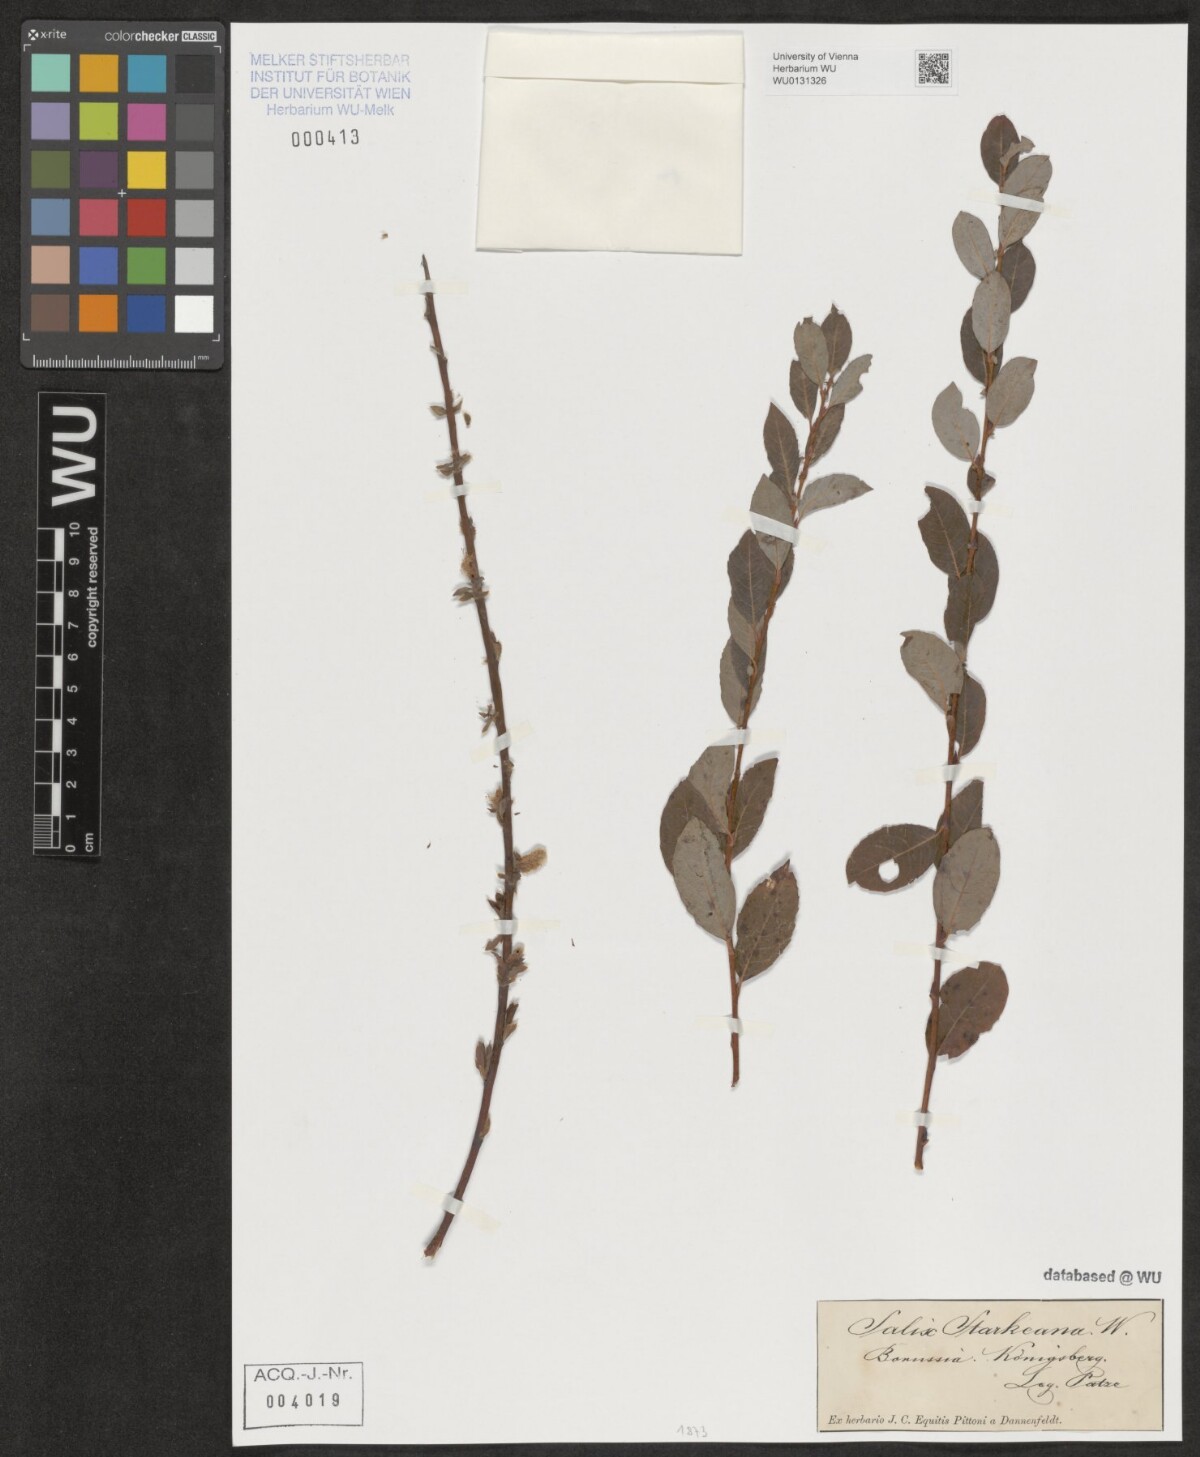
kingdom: Plantae
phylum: Tracheophyta
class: Magnoliopsida
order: Malpighiales
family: Salicaceae
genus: Salix
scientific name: Salix starkeana
